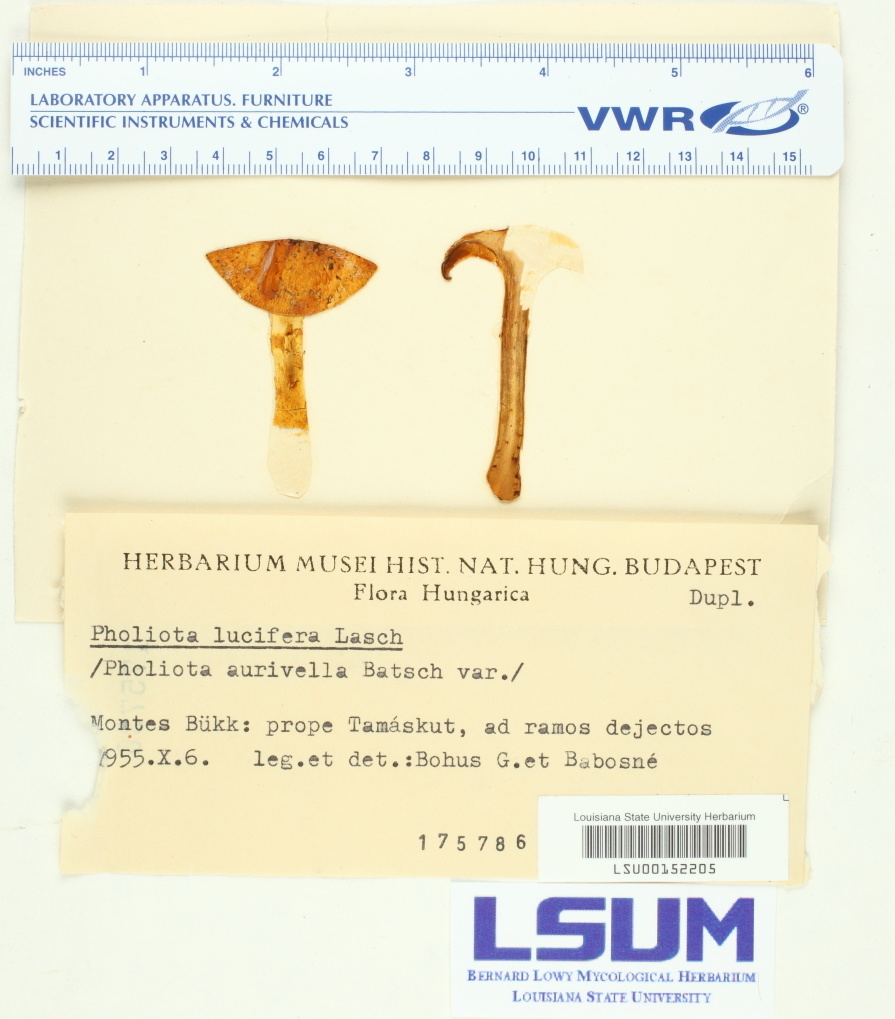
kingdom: Fungi
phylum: Basidiomycota
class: Agaricomycetes
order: Agaricales
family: Strophariaceae
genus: Pholiota
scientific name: Pholiota lucifera
